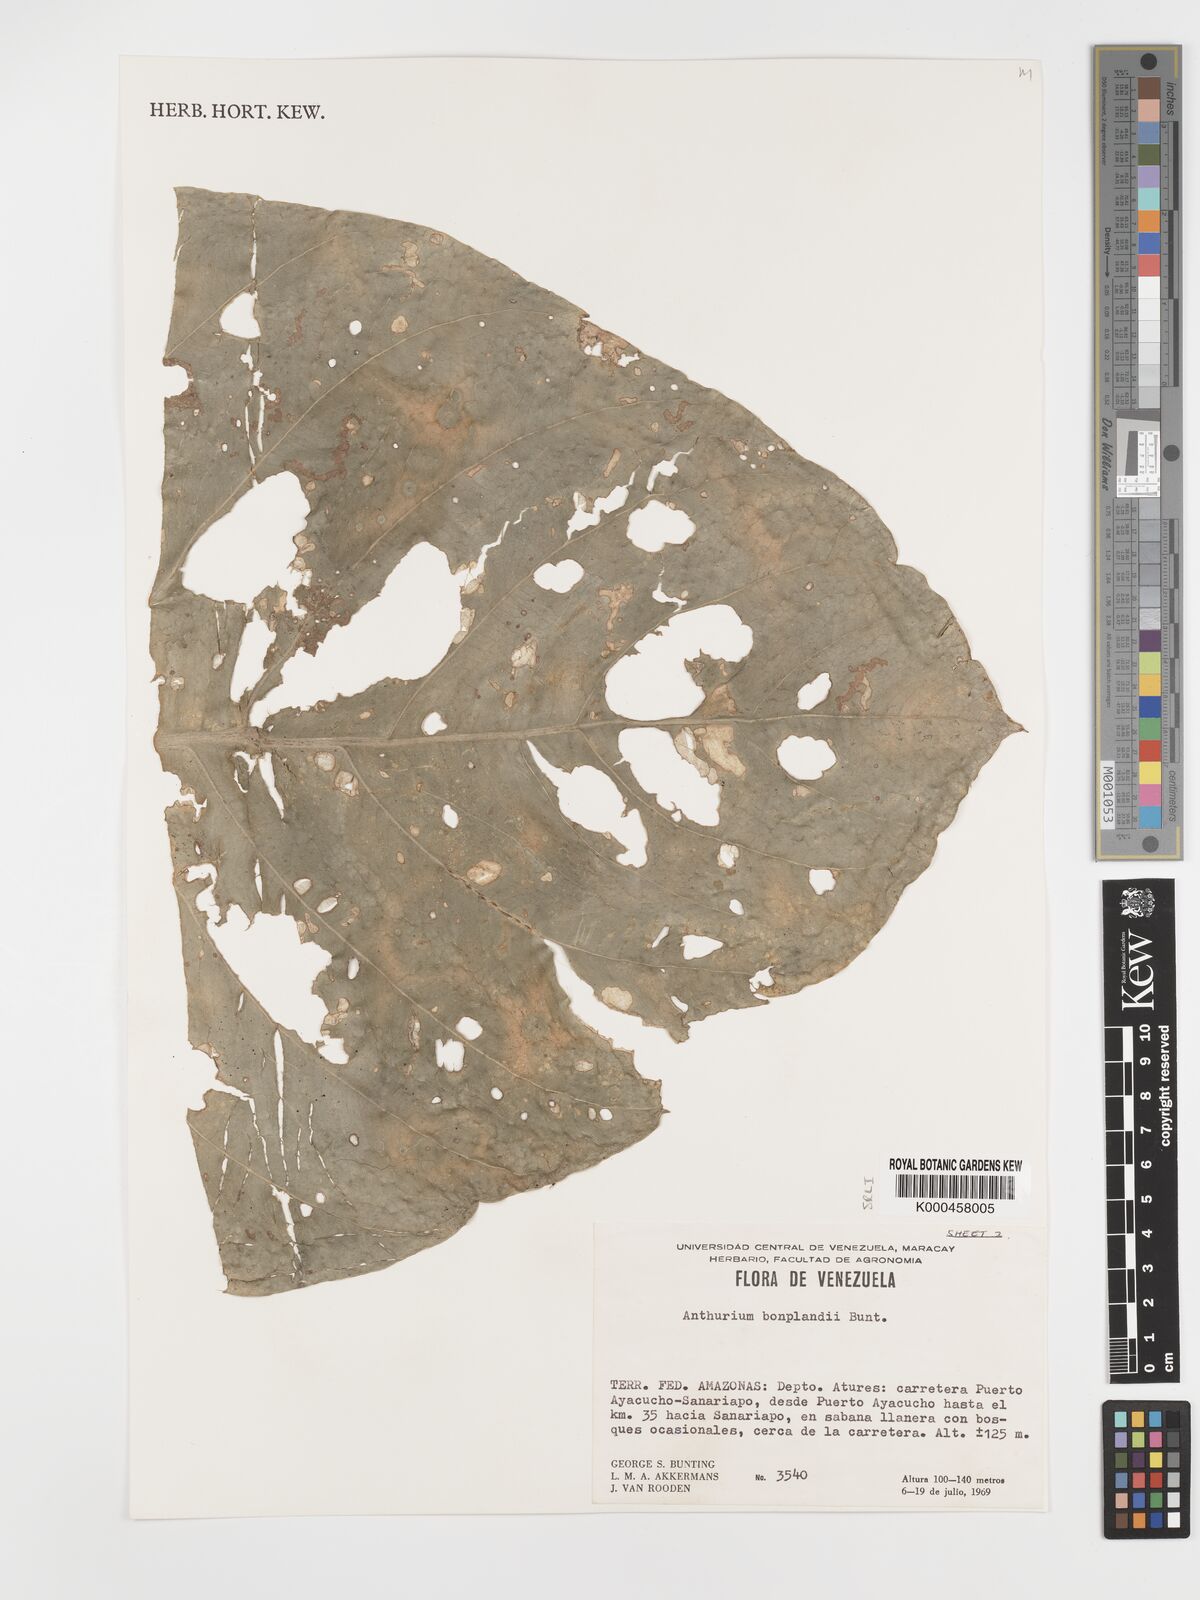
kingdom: Plantae
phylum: Tracheophyta
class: Liliopsida
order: Alismatales
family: Araceae
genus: Anthurium
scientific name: Anthurium bonplandii
